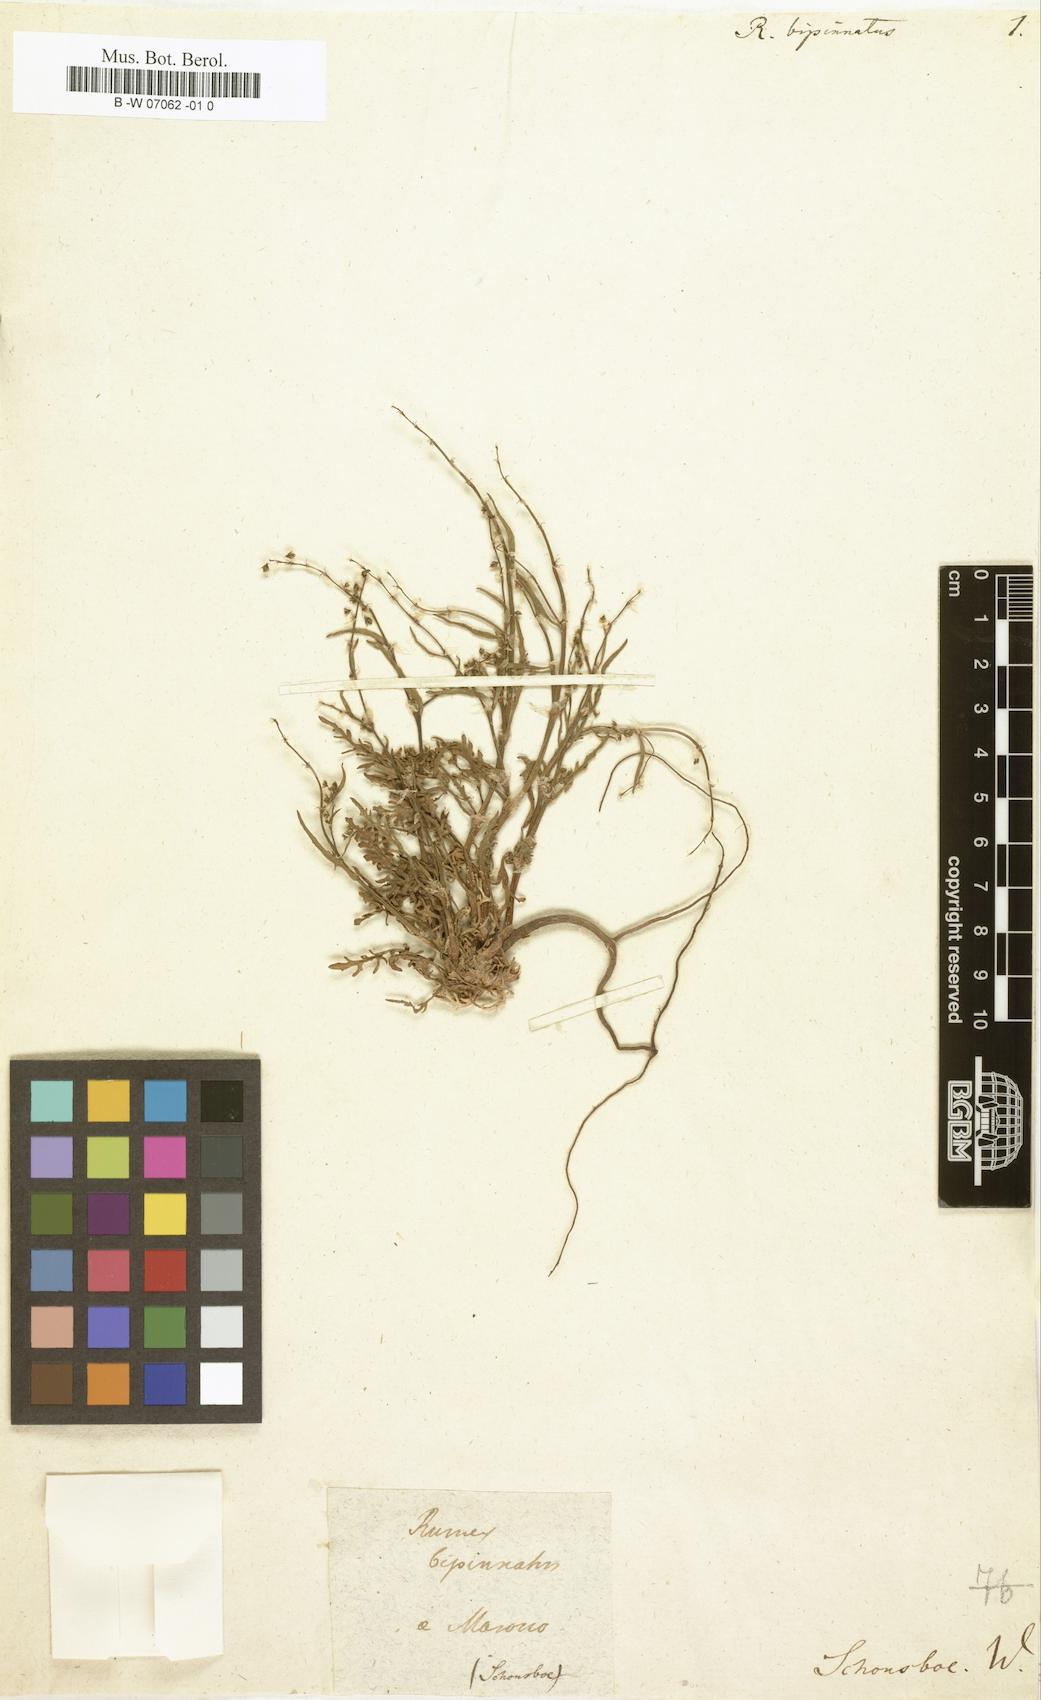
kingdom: Plantae
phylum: Tracheophyta
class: Magnoliopsida
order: Caryophyllales
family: Polygonaceae
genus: Rumex
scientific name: Rumex bipinnatus
